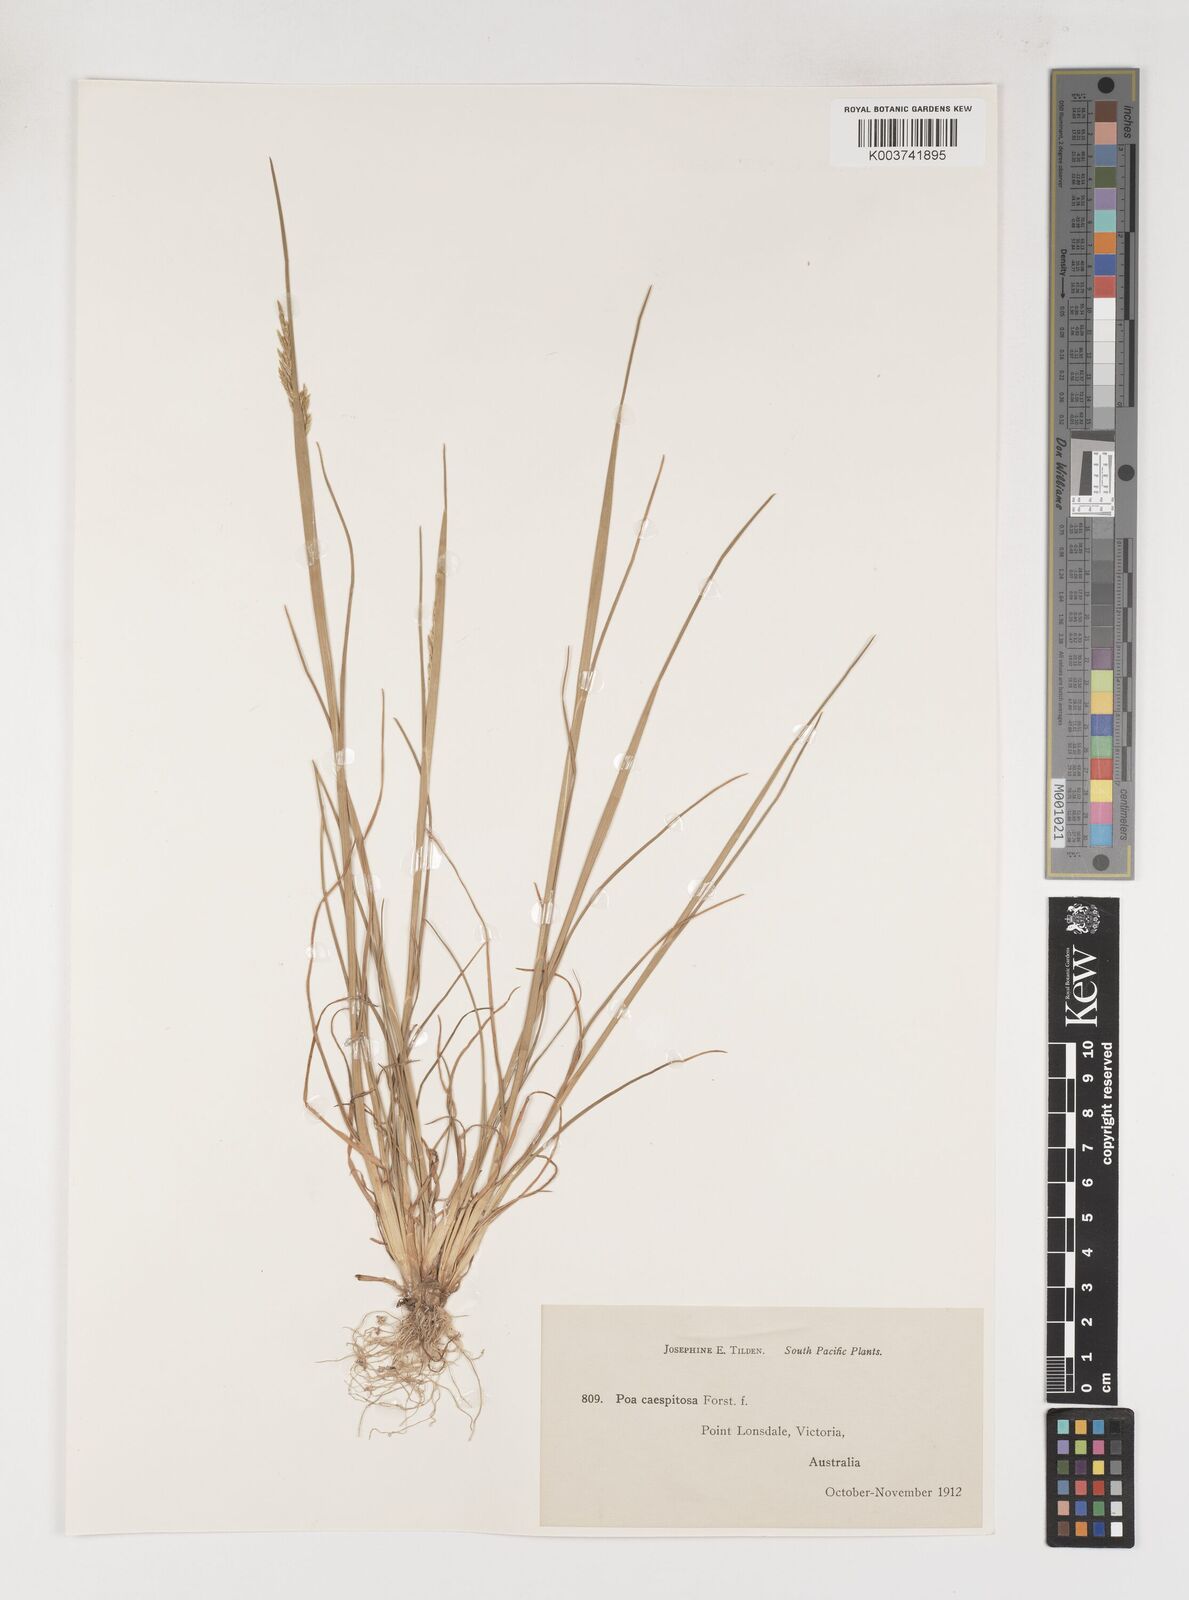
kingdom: Plantae
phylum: Tracheophyta
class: Liliopsida
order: Poales
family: Poaceae
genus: Poa
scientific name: Poa sieberiana
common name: Tussock poa
